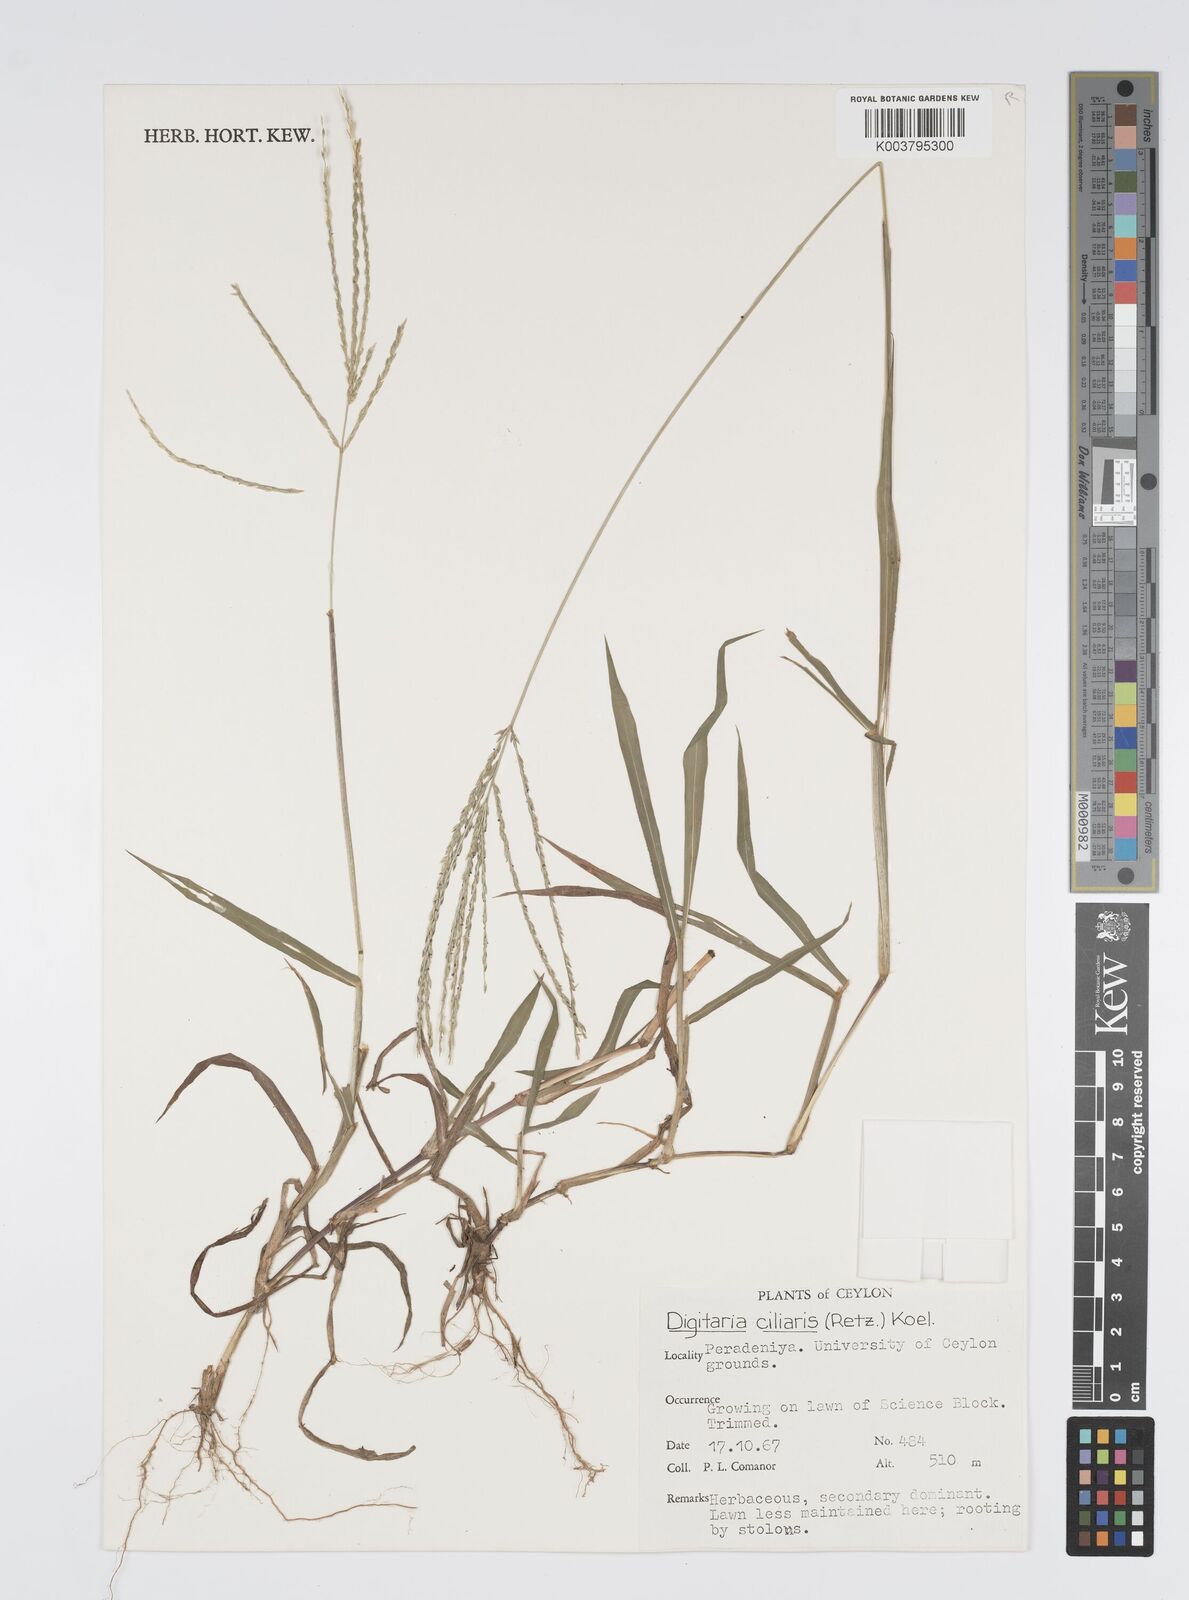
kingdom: Plantae
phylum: Tracheophyta
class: Liliopsida
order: Poales
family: Poaceae
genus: Digitaria
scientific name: Digitaria ciliaris
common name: Tropical finger-grass
